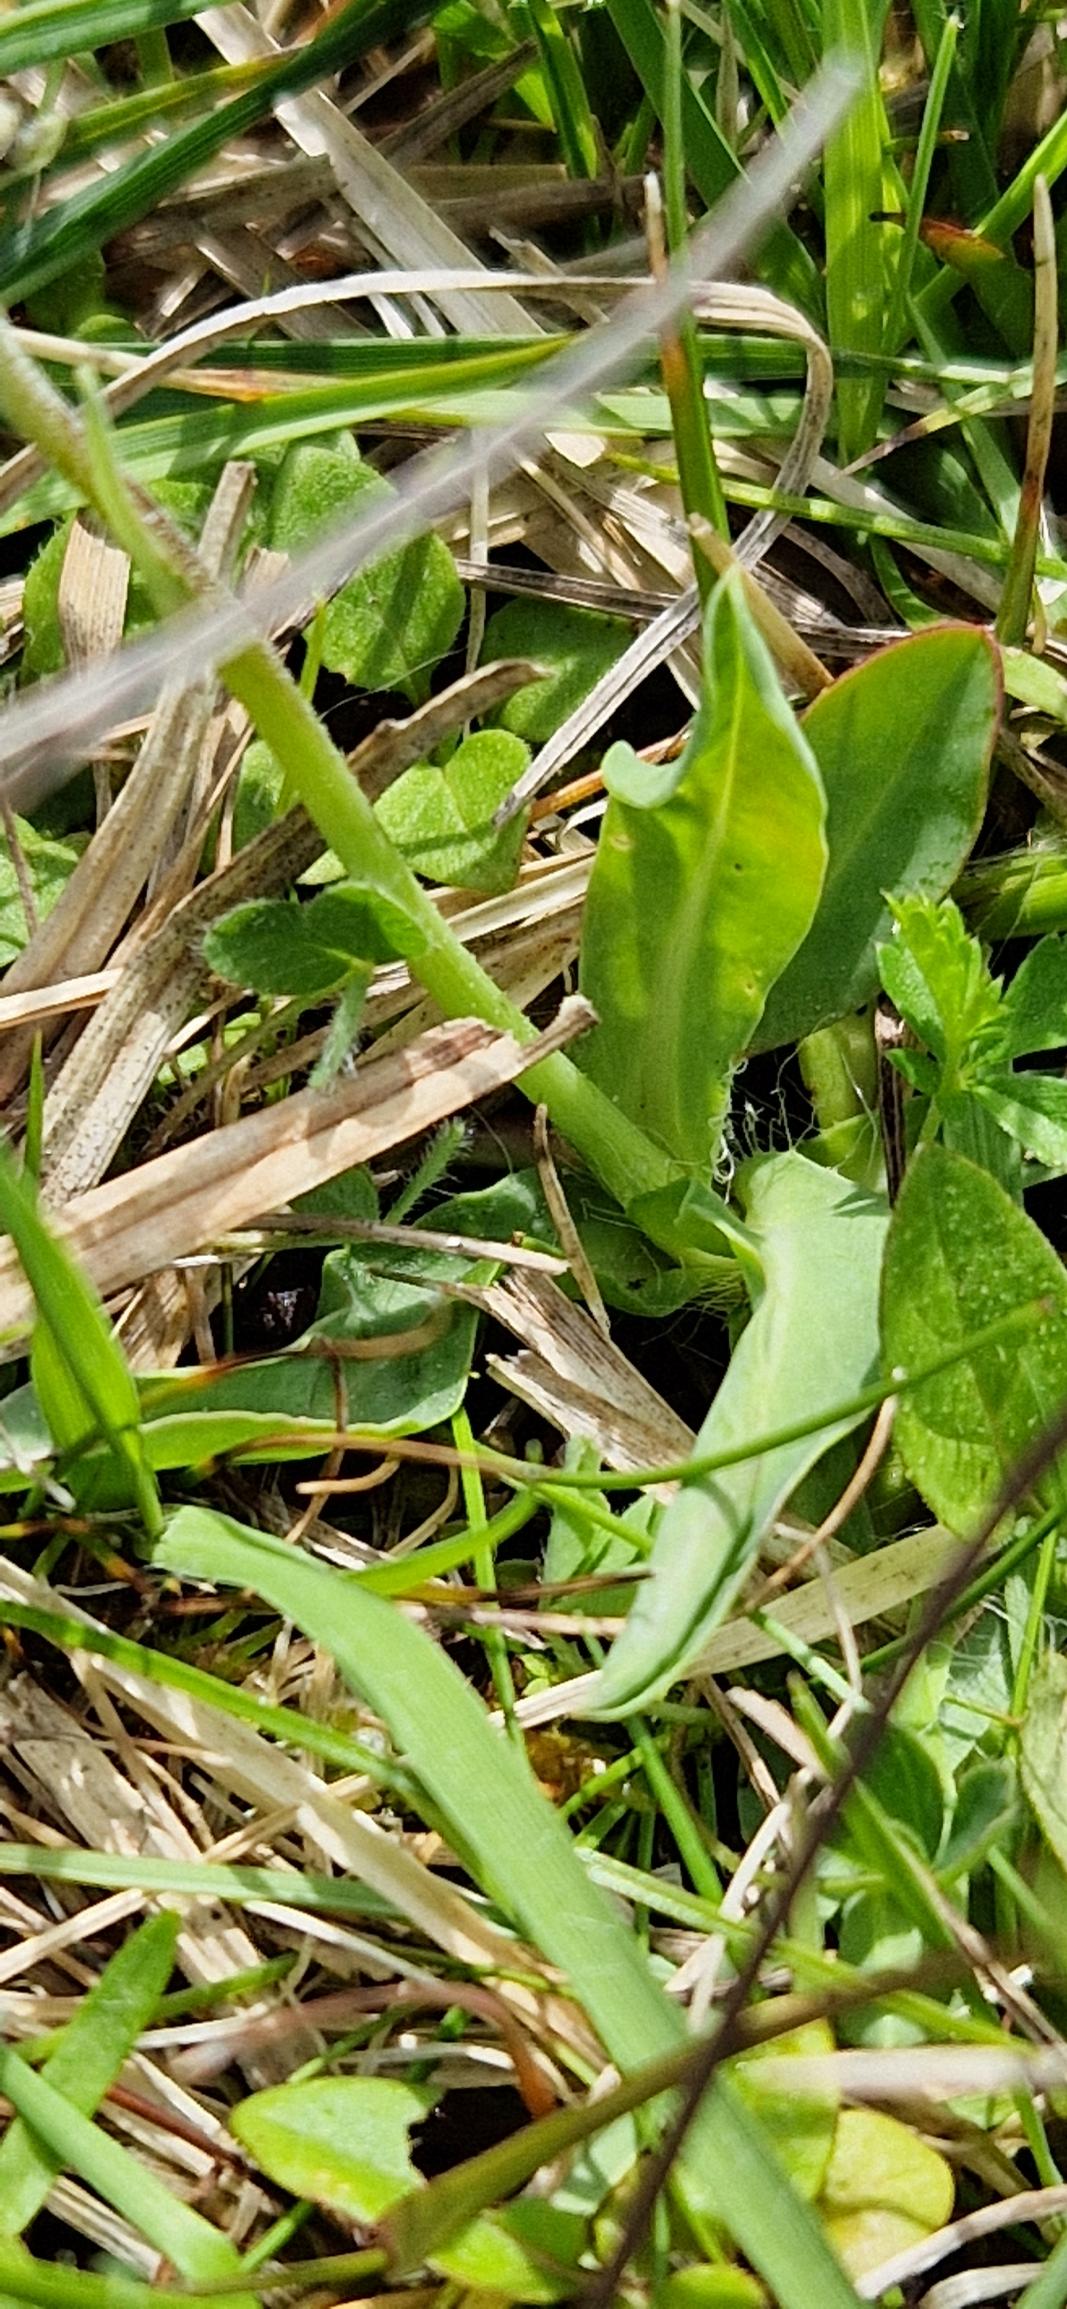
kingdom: Plantae
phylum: Tracheophyta
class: Magnoliopsida
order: Asterales
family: Asteraceae
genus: Pilosella
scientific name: Pilosella lactucella
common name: Lancetbladet høgeurt
